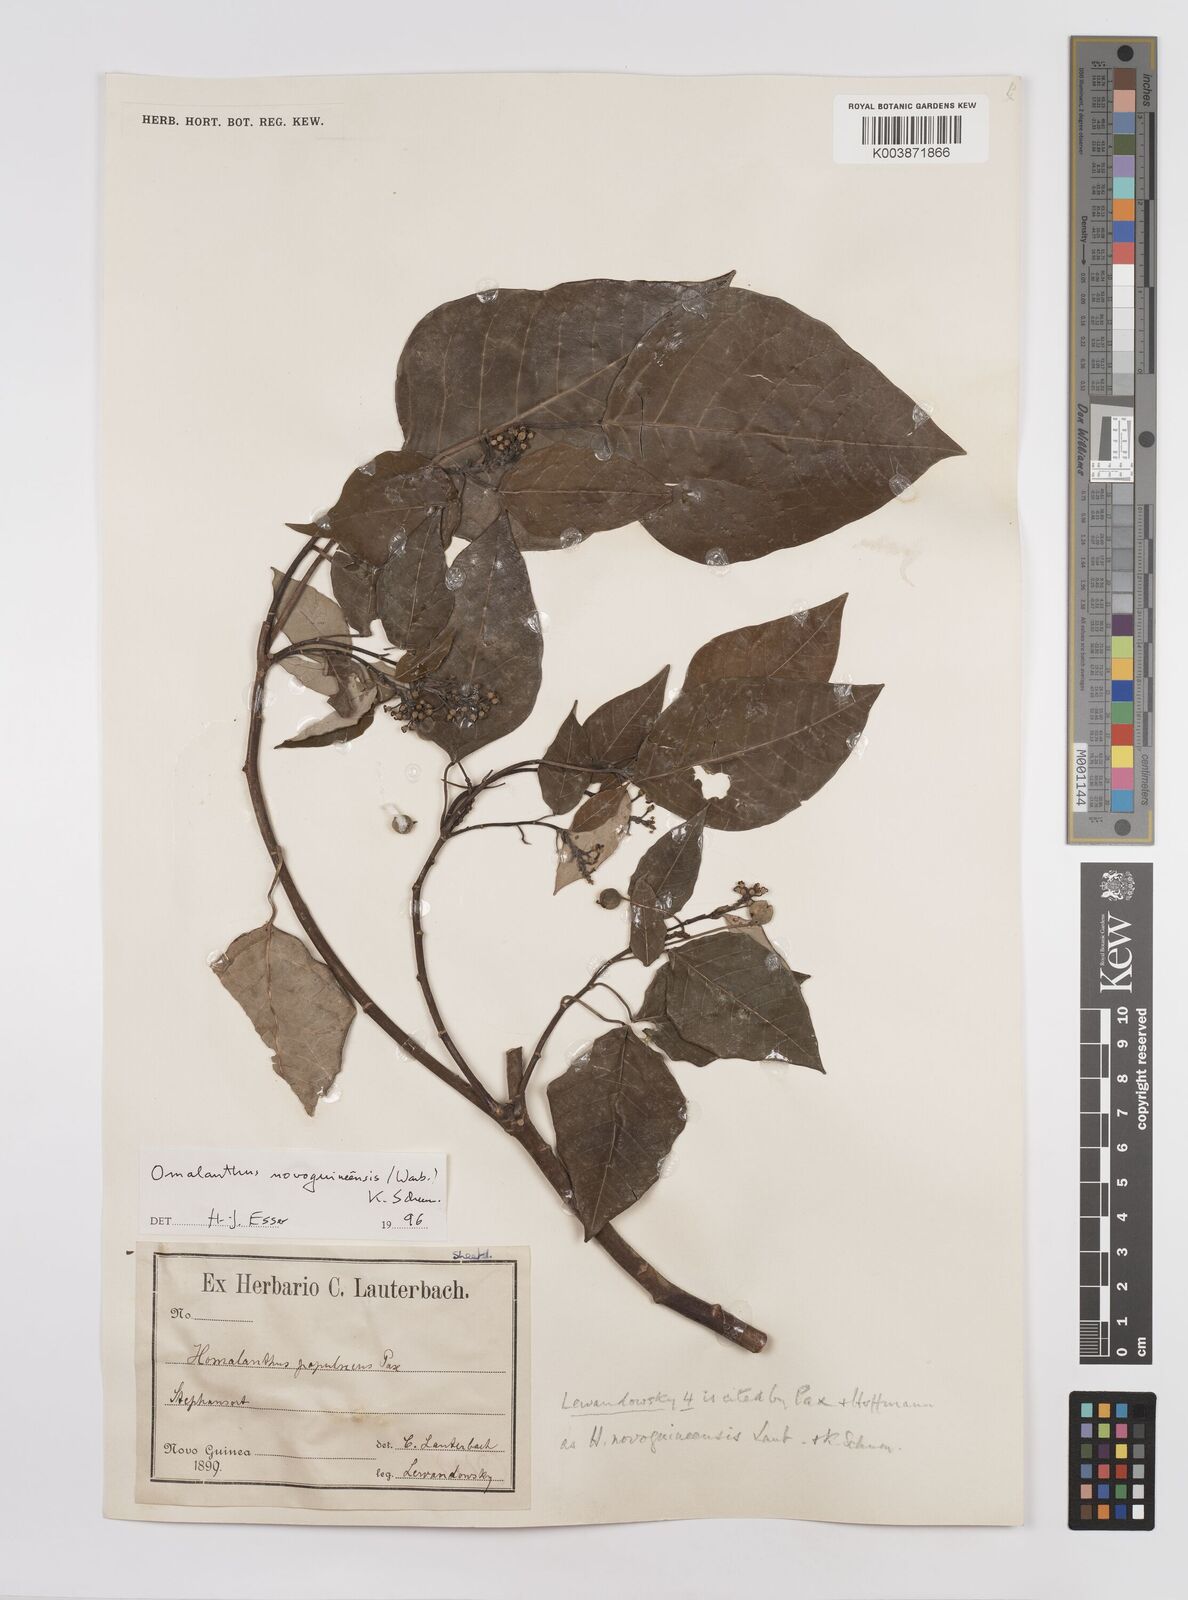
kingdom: Plantae
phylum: Tracheophyta
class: Magnoliopsida
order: Malpighiales
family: Euphorbiaceae
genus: Homalanthus
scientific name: Homalanthus novoguineensis
